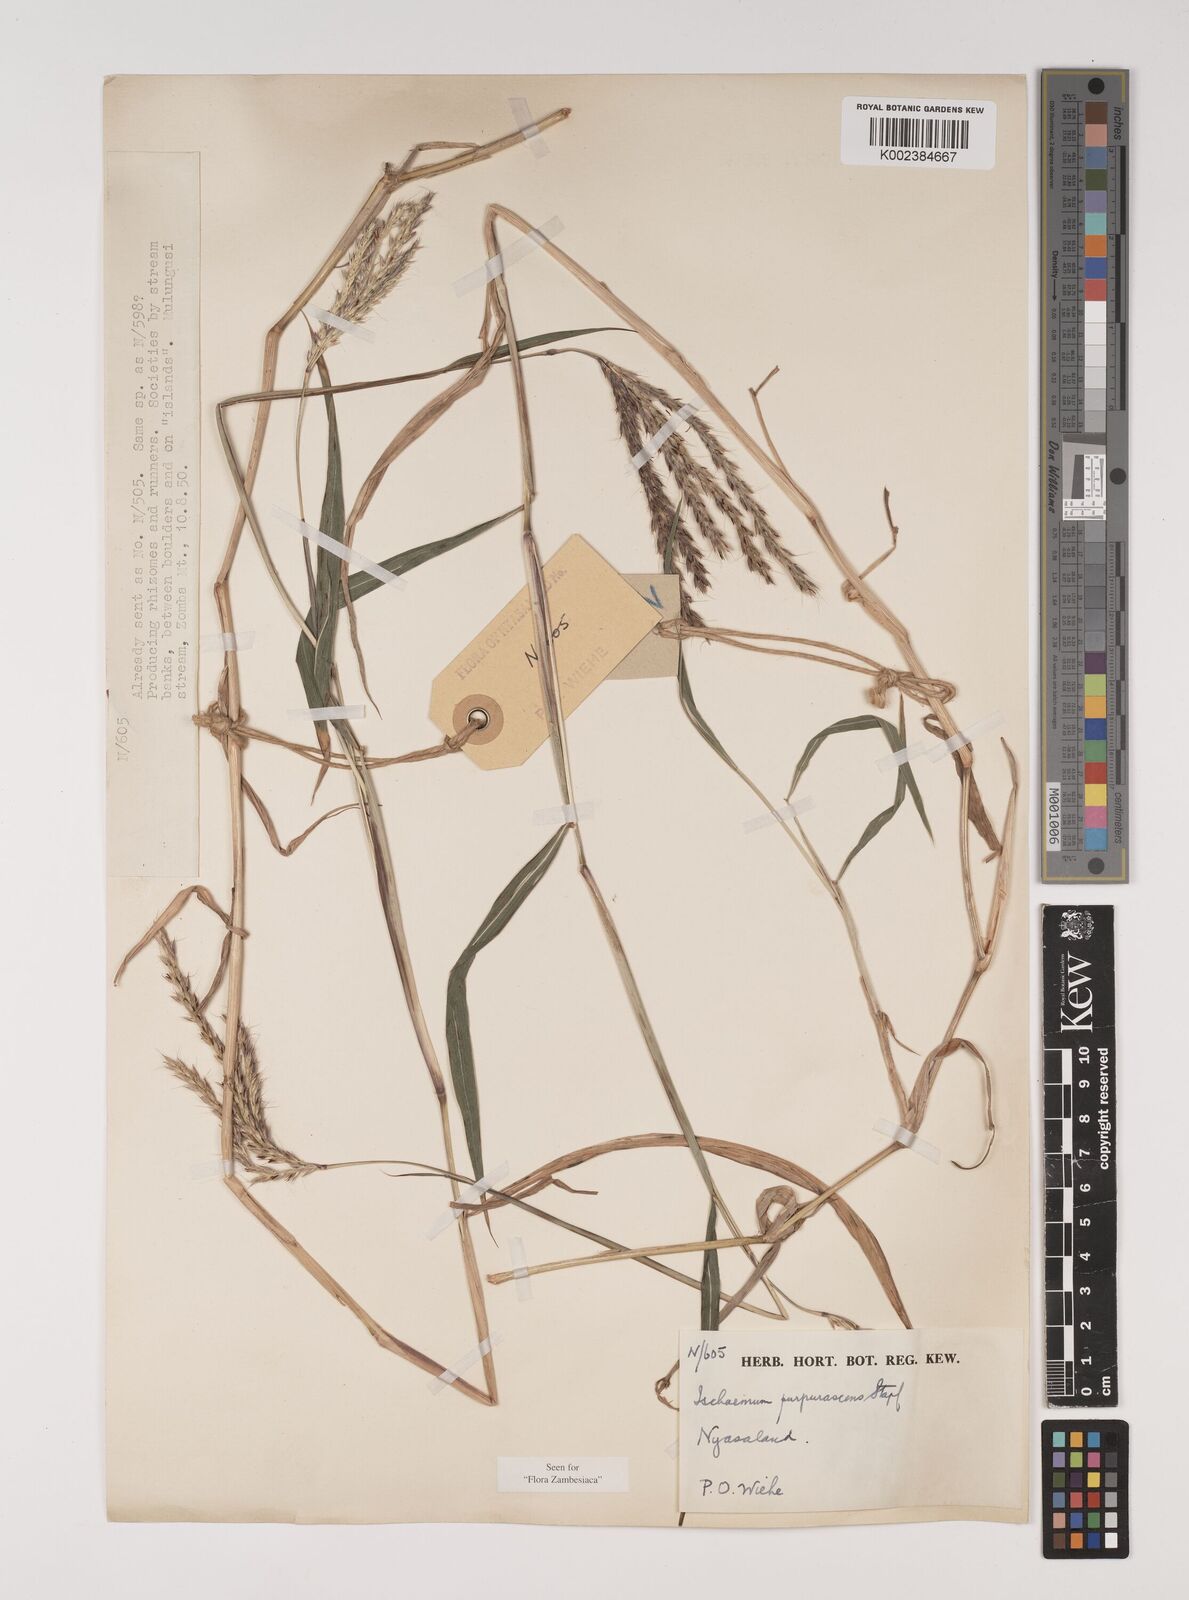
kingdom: Plantae
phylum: Tracheophyta
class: Liliopsida
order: Poales
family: Poaceae
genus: Ischaemum
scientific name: Ischaemum
